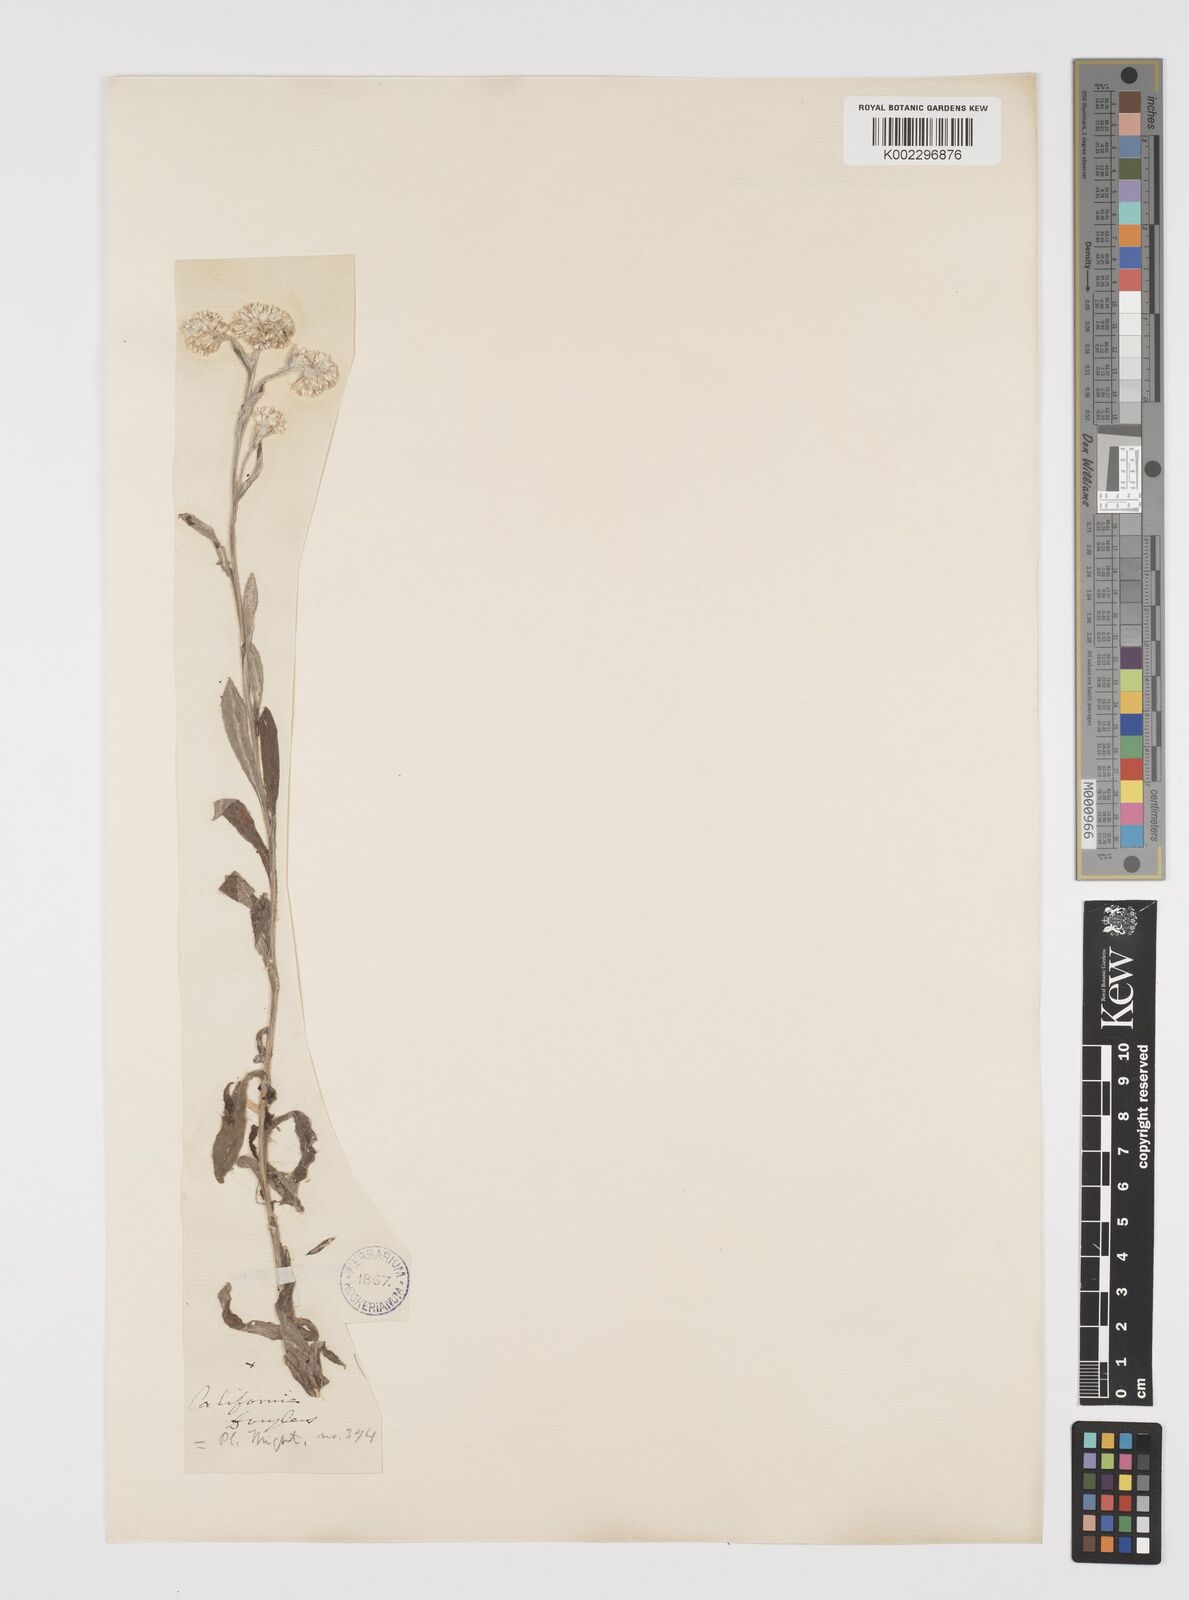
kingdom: Plantae
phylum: Tracheophyta
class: Magnoliopsida
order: Asterales
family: Asteraceae
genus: Helichrysum
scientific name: Helichrysum luteoalbum
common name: Daisy
